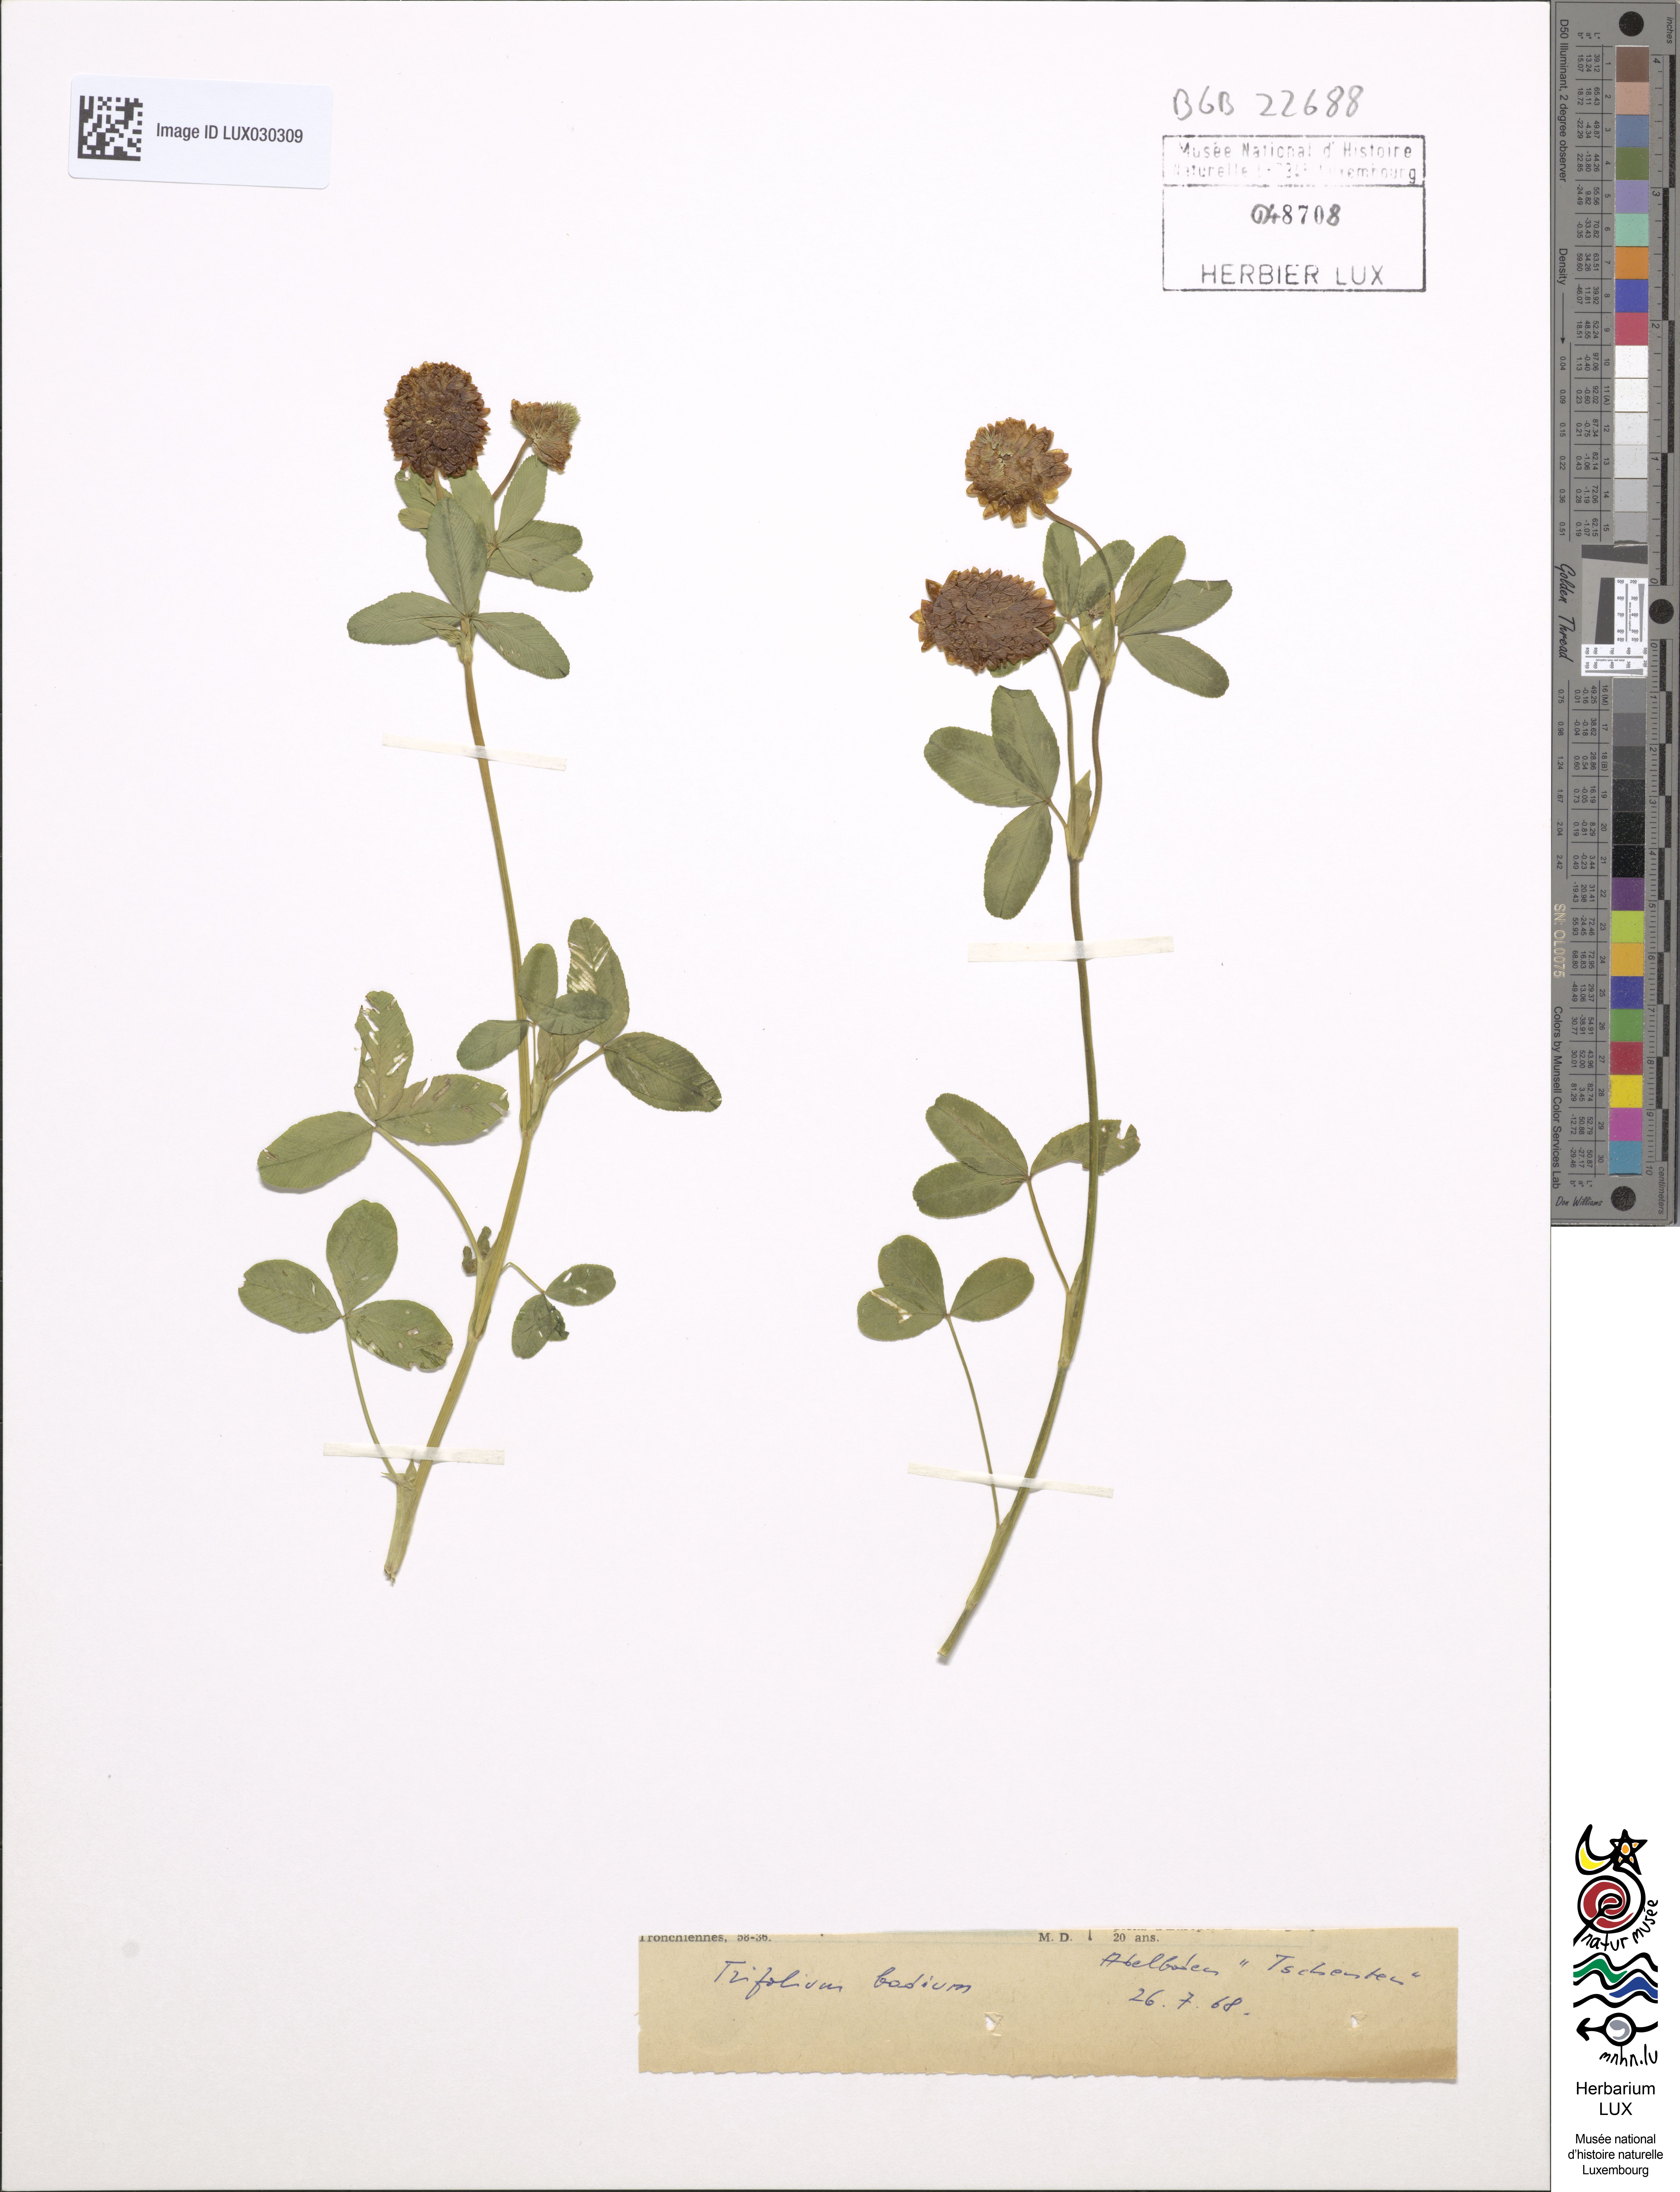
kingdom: Plantae
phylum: Tracheophyta
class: Magnoliopsida
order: Fabales
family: Fabaceae
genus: Trifolium
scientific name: Trifolium badium
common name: Brown clover
